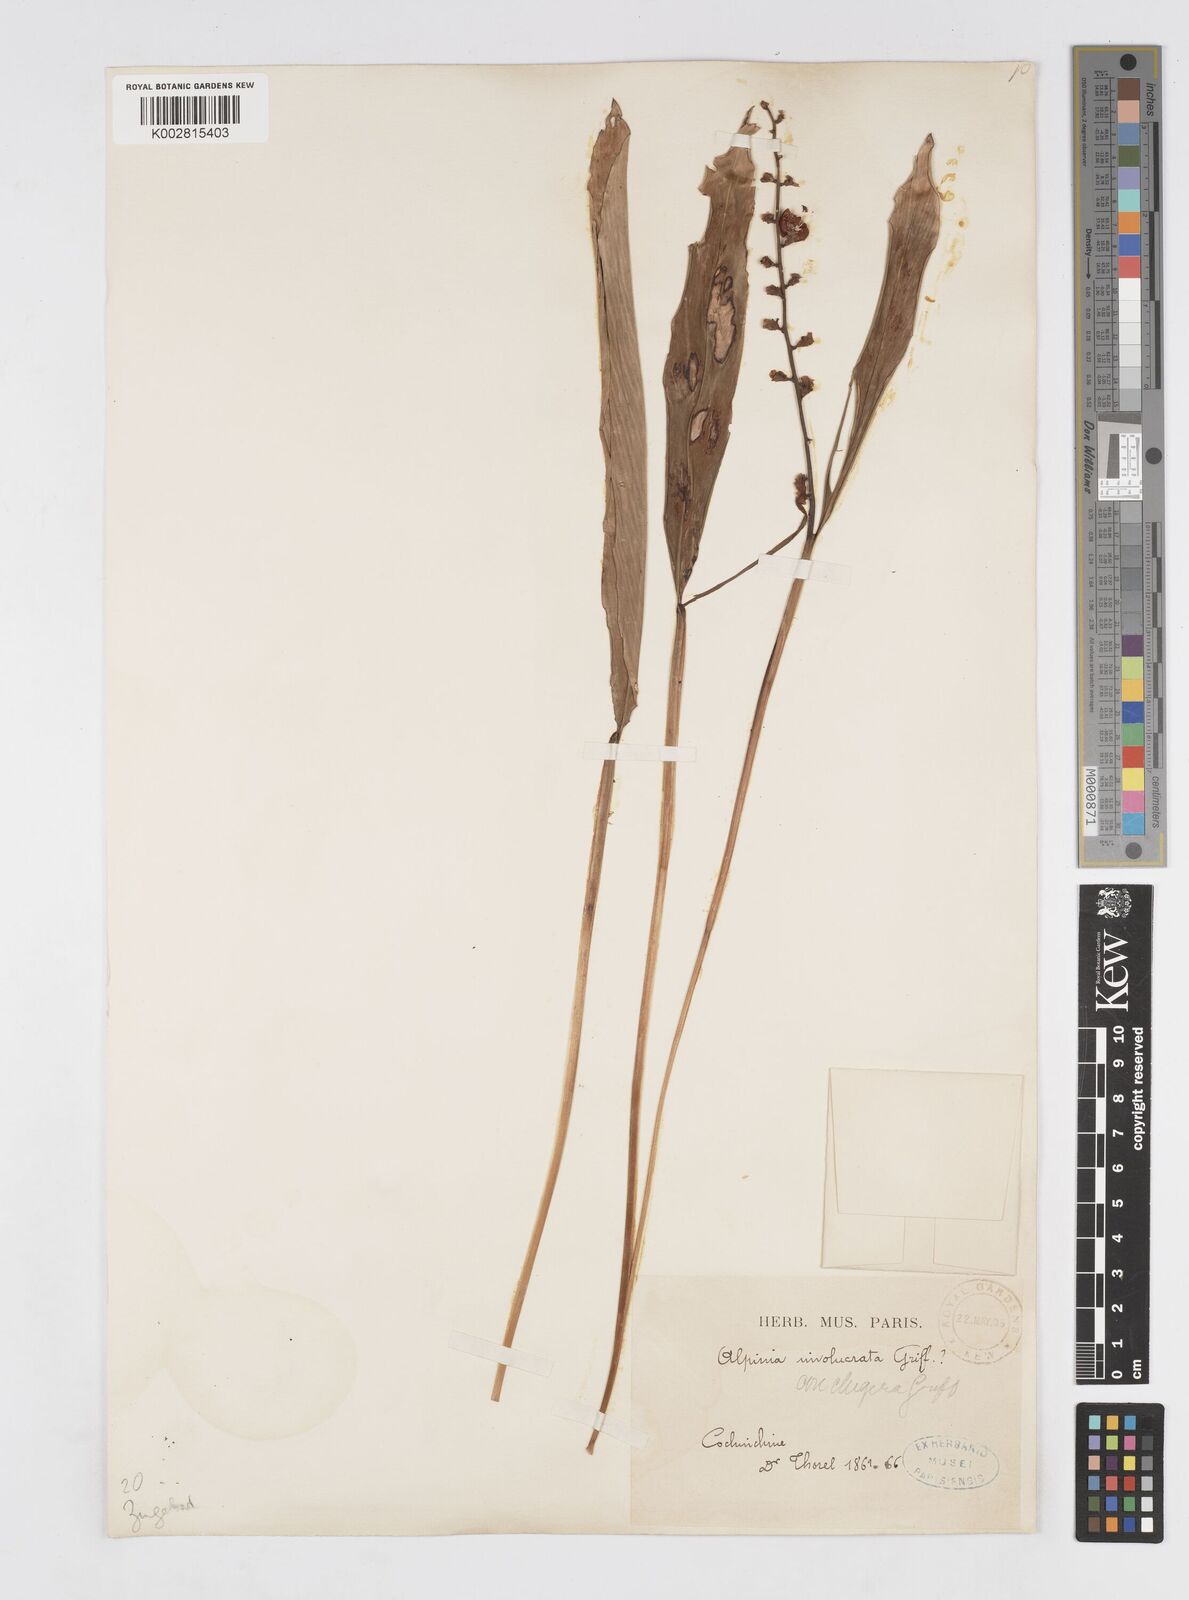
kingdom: Plantae
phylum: Tracheophyta
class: Liliopsida
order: Zingiberales
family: Zingiberaceae
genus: Alpinia
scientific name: Alpinia conchigera
